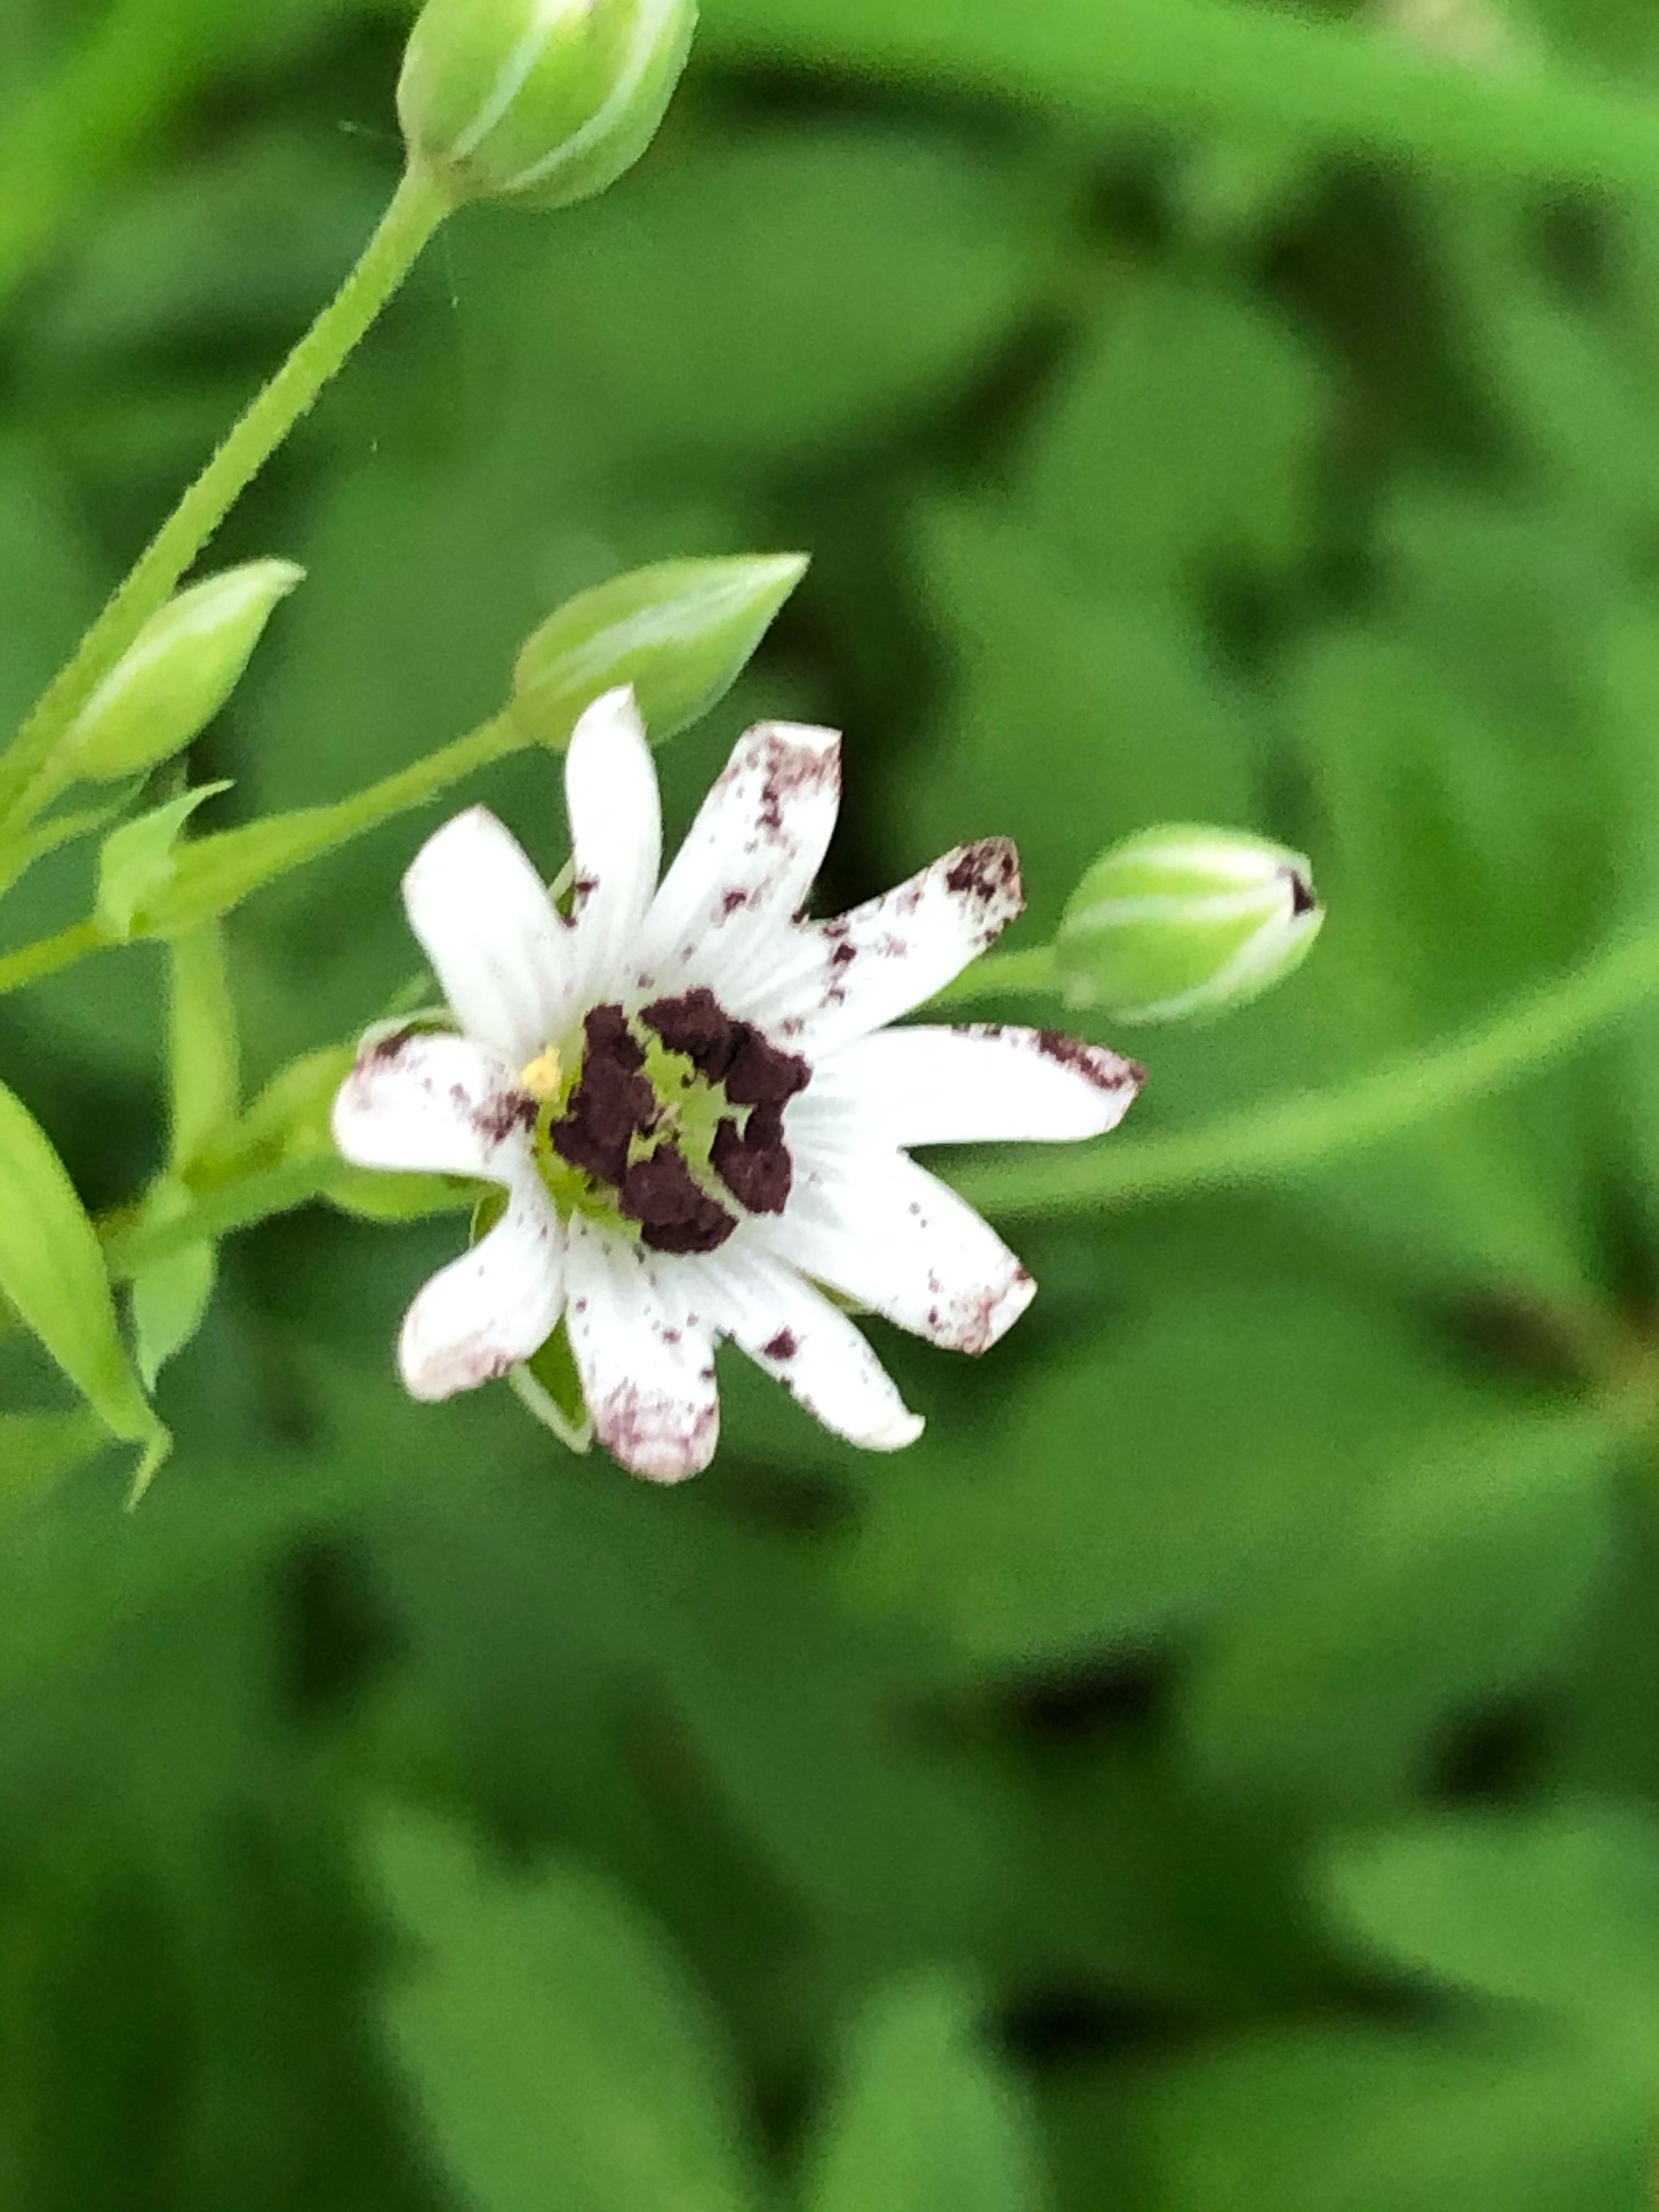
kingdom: Fungi
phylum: Basidiomycota
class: Microbotryomycetes
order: Microbotryales
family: Microbotryaceae
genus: Microbotryum
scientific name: Microbotryum stellariae
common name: fladstjerne-støvbladrust
